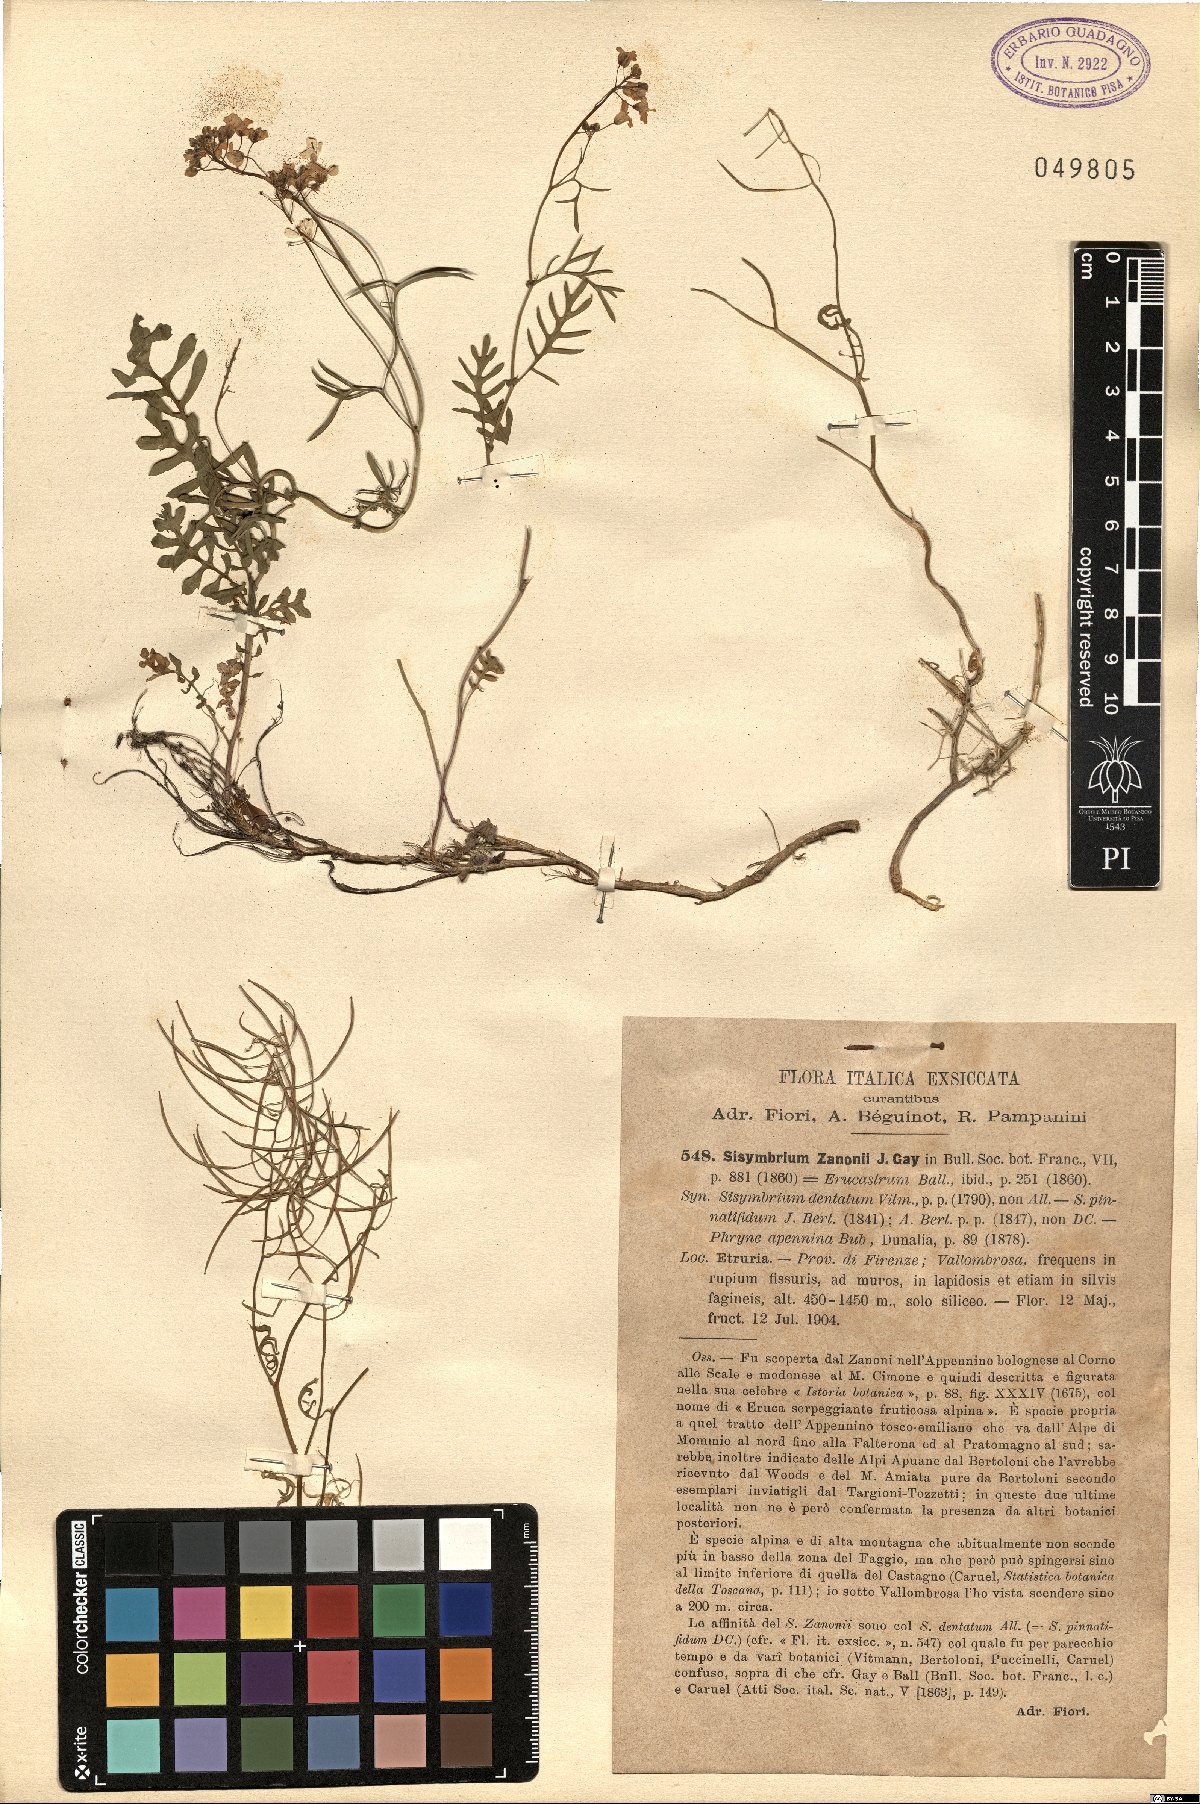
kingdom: Plantae
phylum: Tracheophyta
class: Magnoliopsida
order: Brassicales
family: Brassicaceae
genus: Murbeckiella
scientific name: Murbeckiella zanonii
